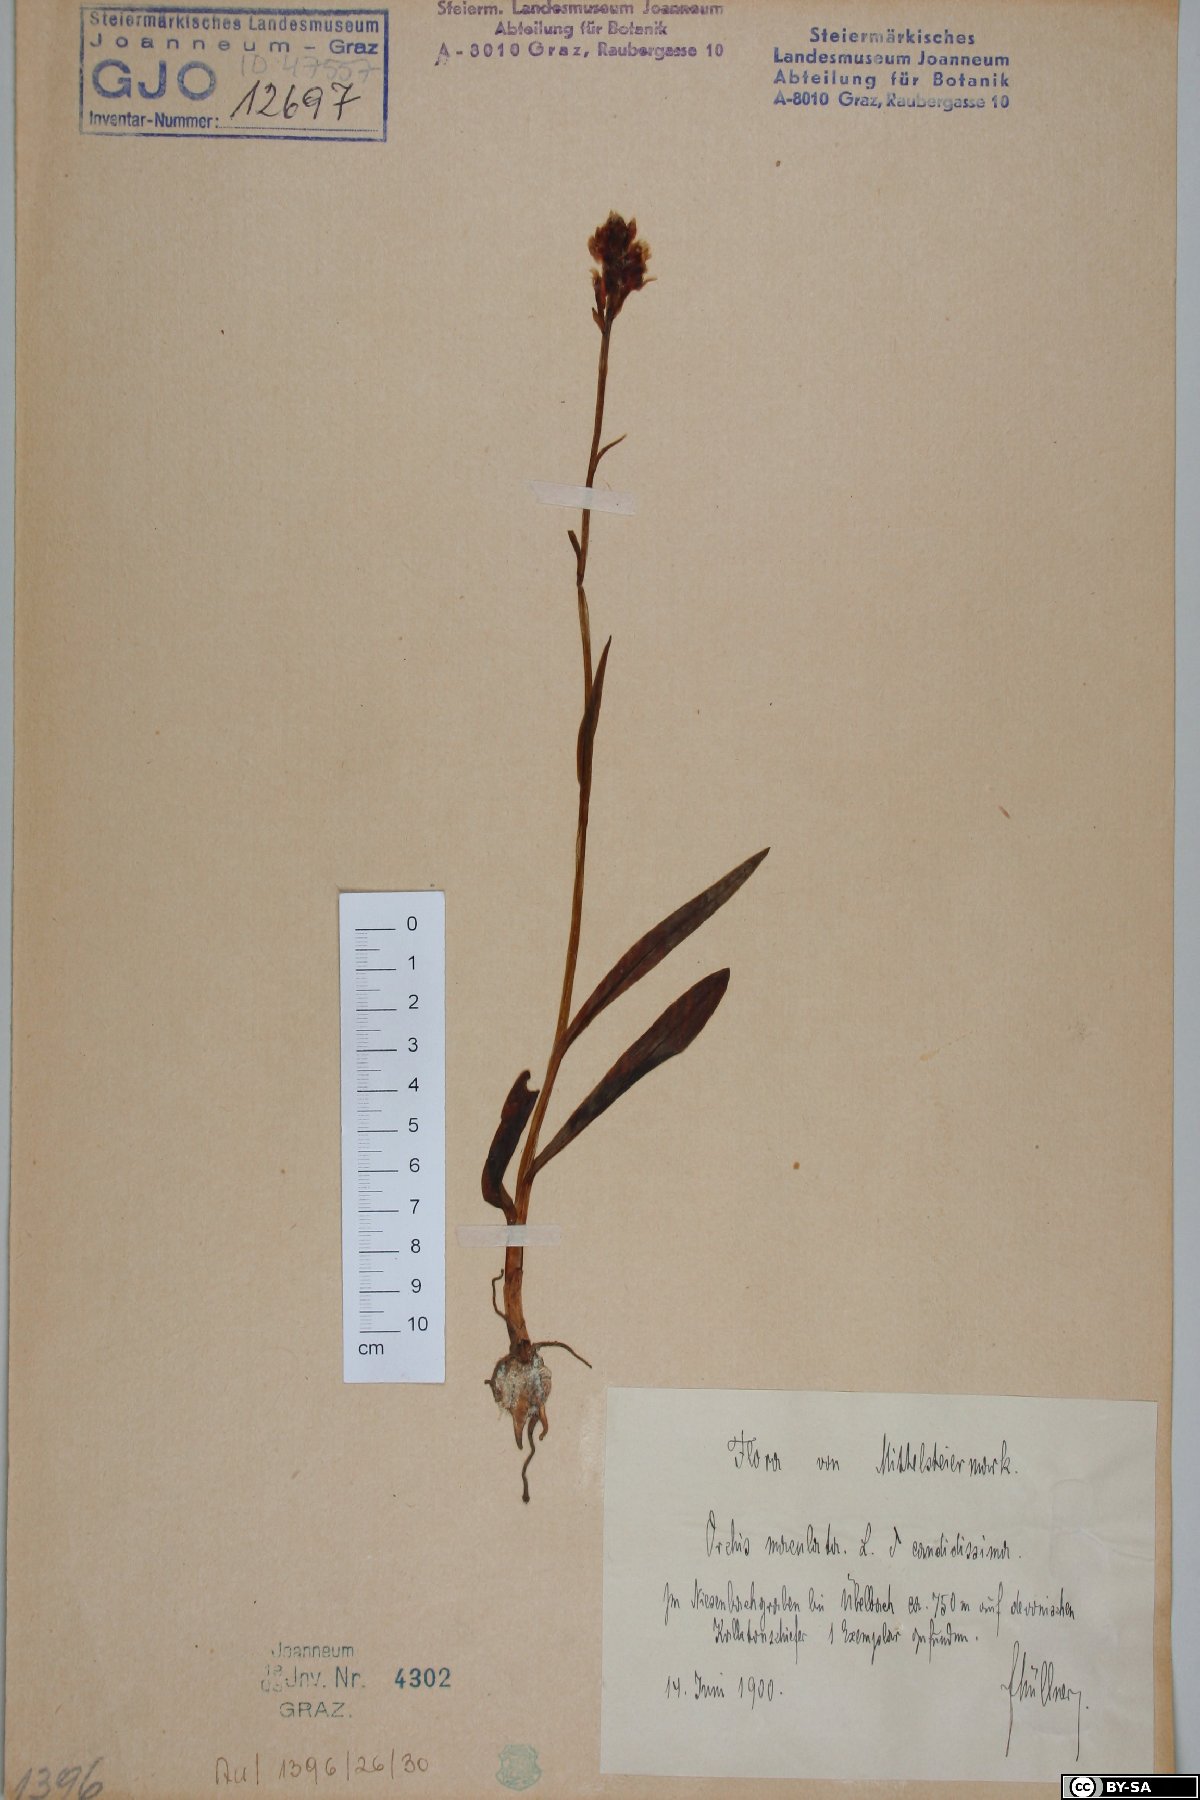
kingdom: Plantae
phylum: Tracheophyta
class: Liliopsida
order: Asparagales
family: Orchidaceae
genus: Dactylorhiza
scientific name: Dactylorhiza maculata
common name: Heath spotted-orchid
